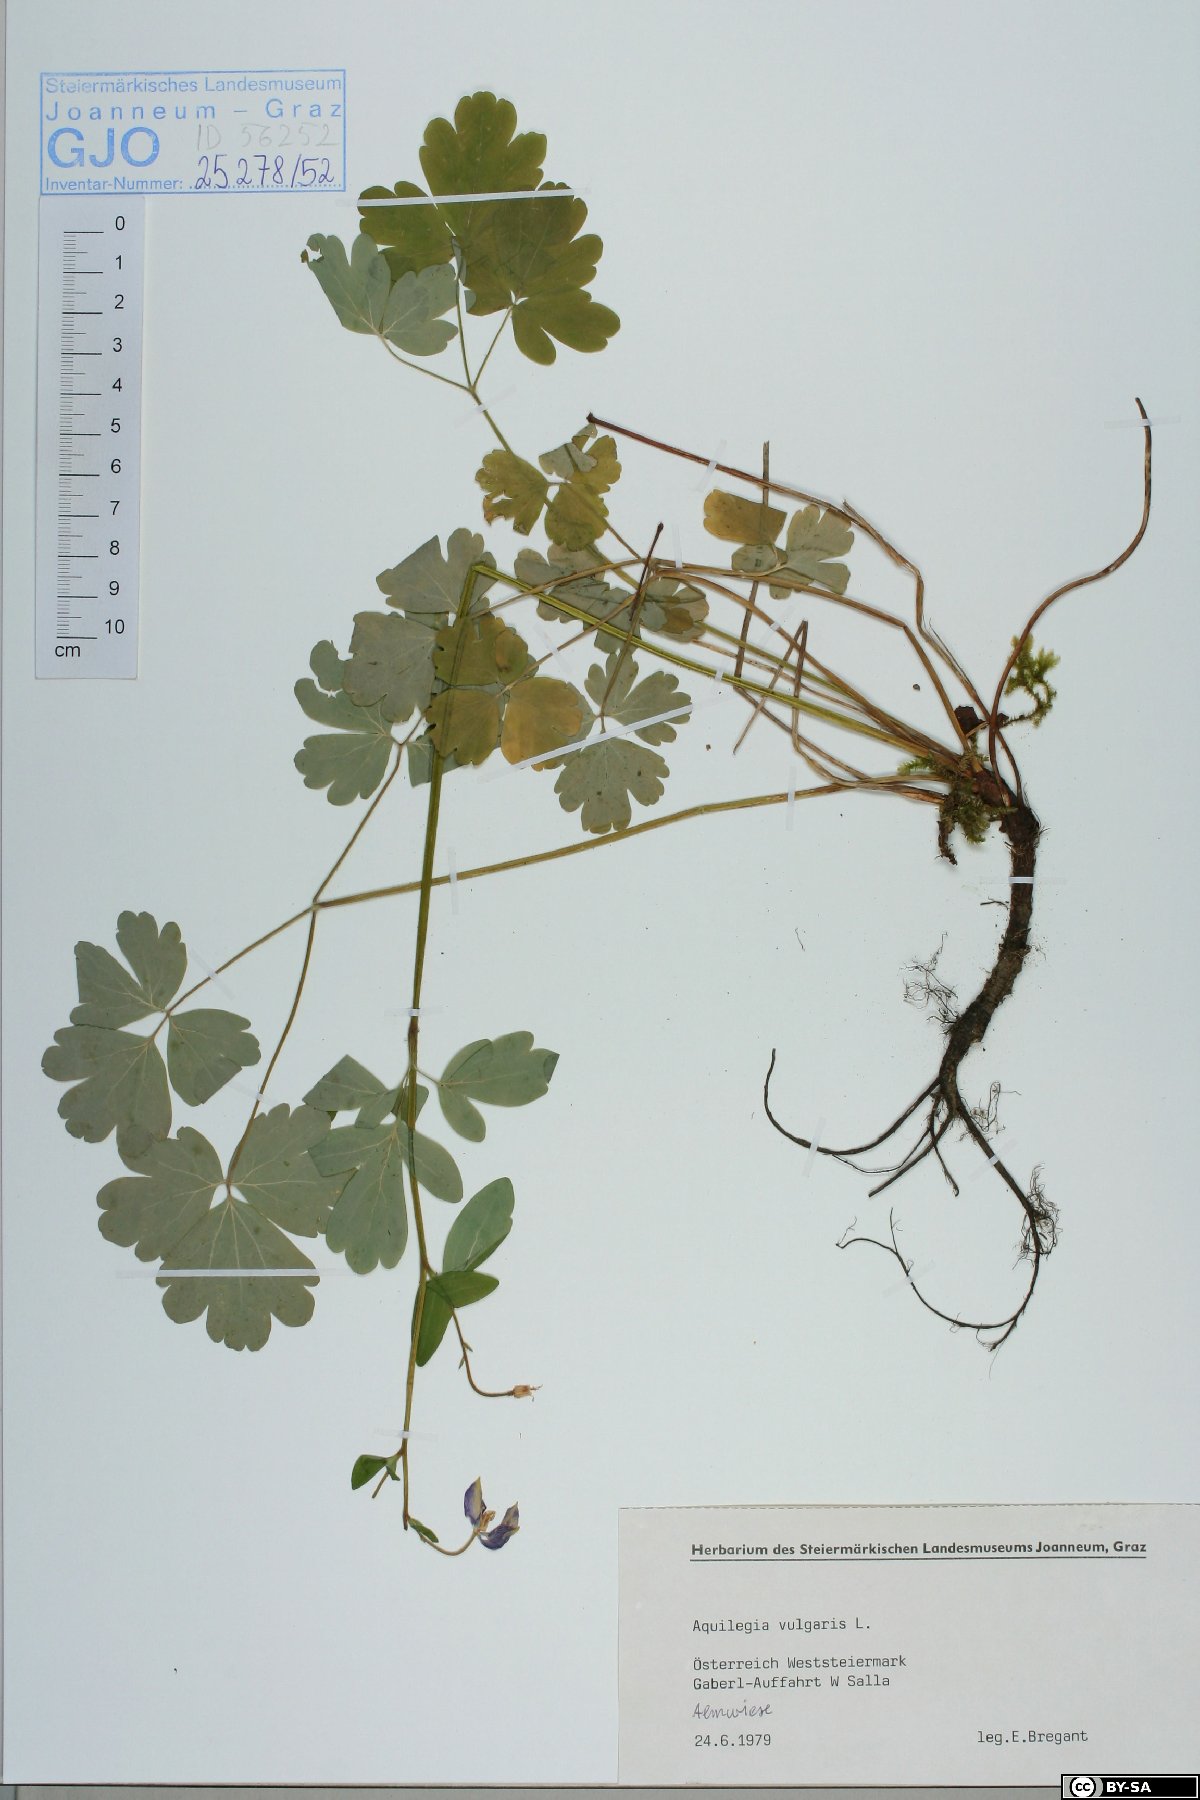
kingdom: Plantae
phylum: Tracheophyta
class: Magnoliopsida
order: Ranunculales
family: Ranunculaceae
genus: Aquilegia
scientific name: Aquilegia vulgaris
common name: Columbine
